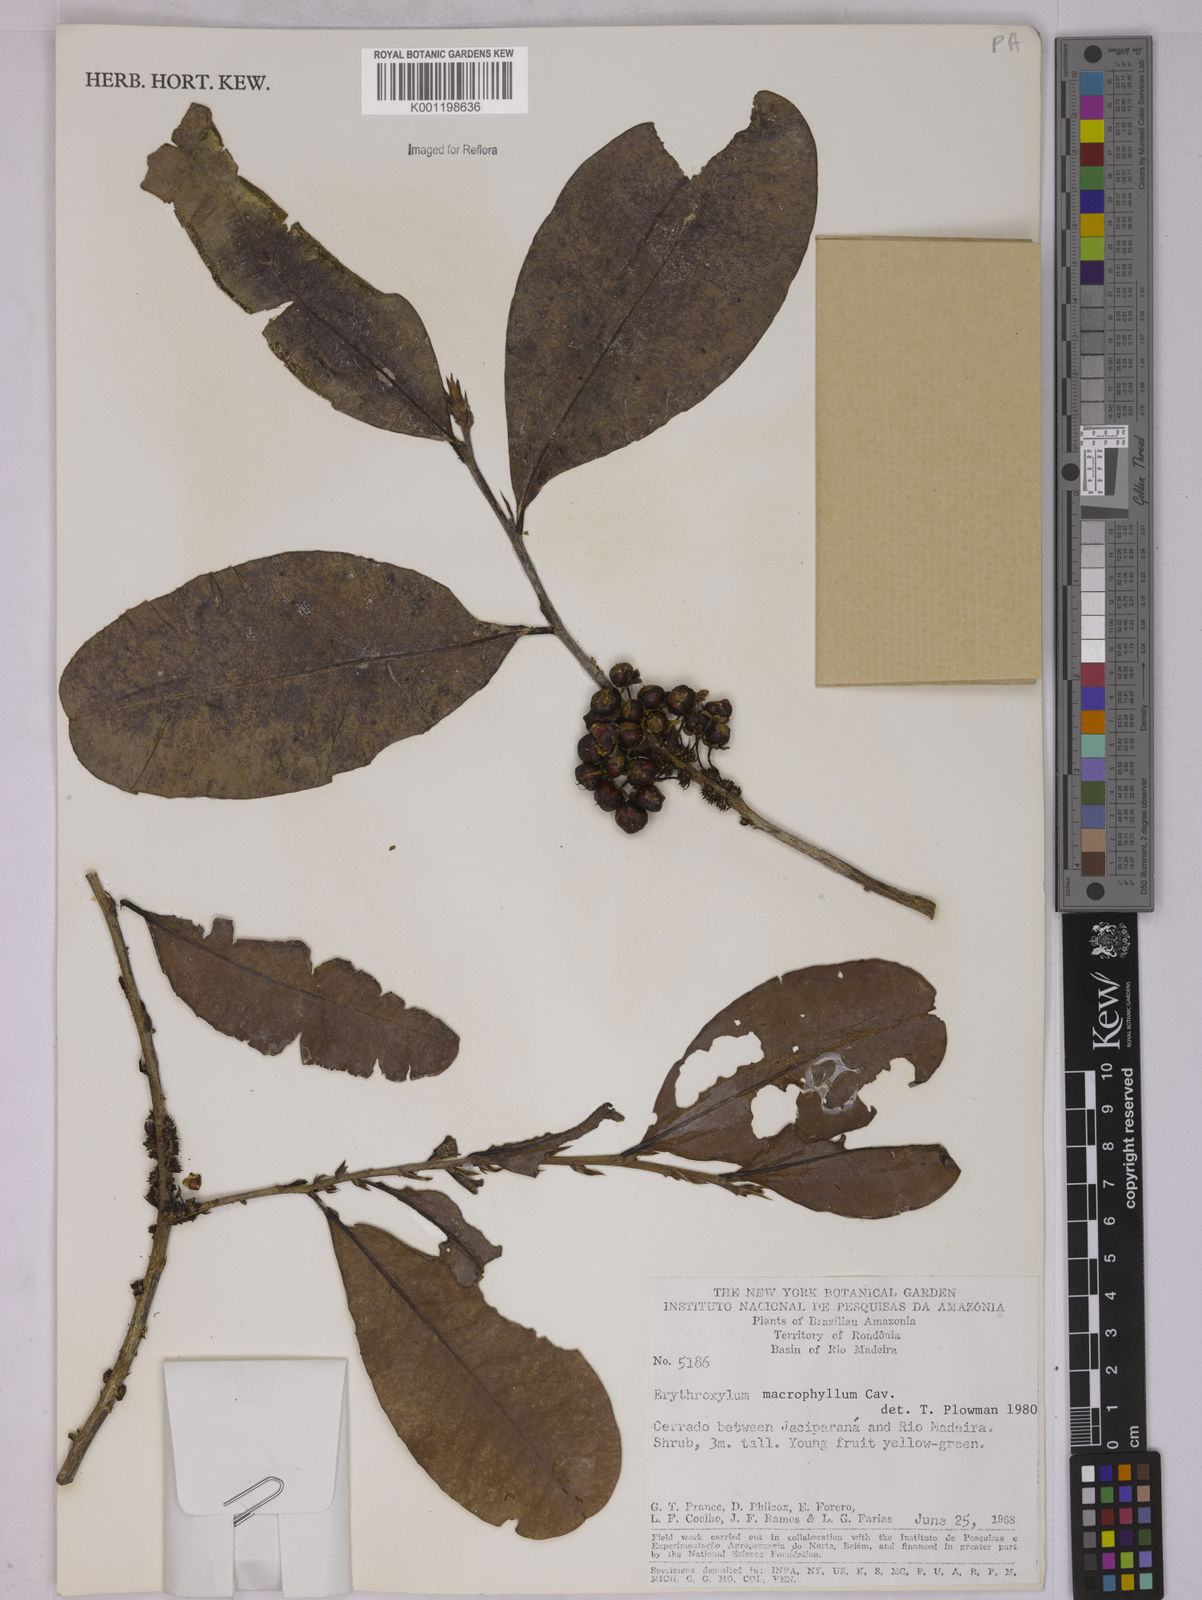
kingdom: Plantae
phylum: Tracheophyta
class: Magnoliopsida
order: Malpighiales
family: Erythroxylaceae
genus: Erythroxylum
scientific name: Erythroxylum macrophyllum
